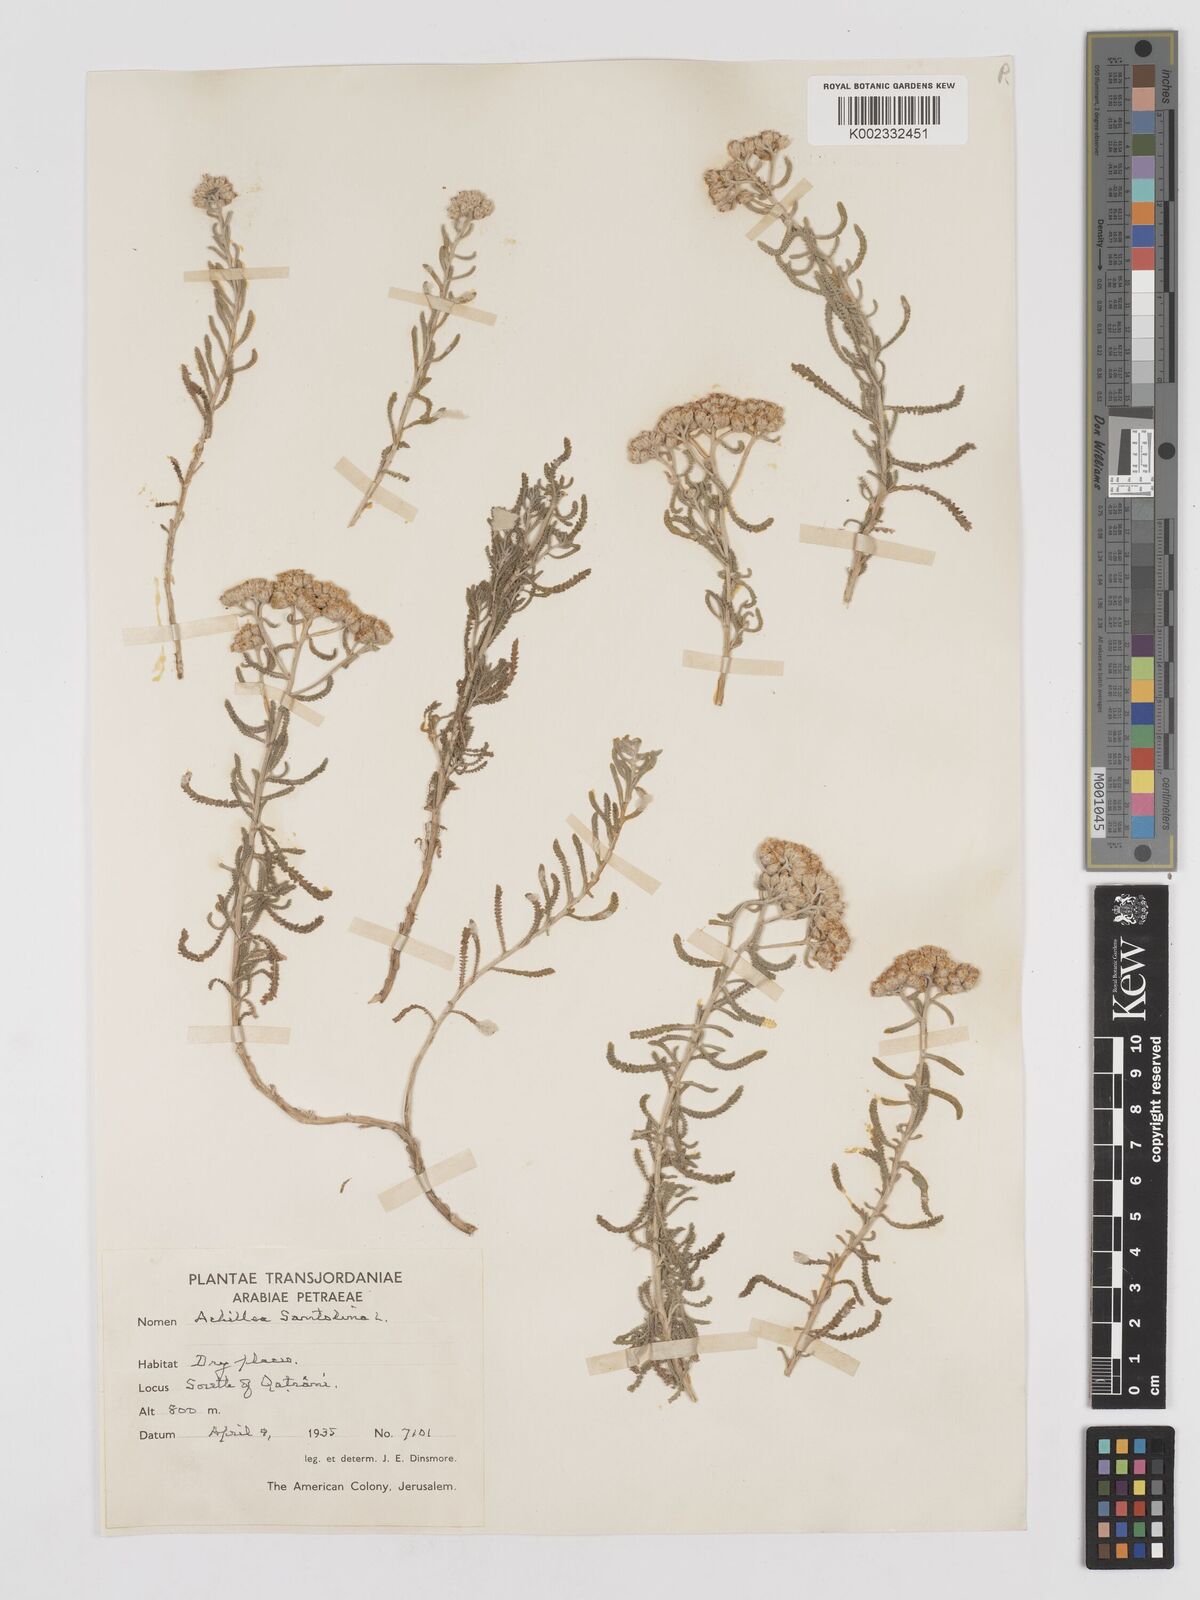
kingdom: Plantae
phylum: Tracheophyta
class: Magnoliopsida
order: Asterales
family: Asteraceae
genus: Achillea
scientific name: Achillea tenuifolia
